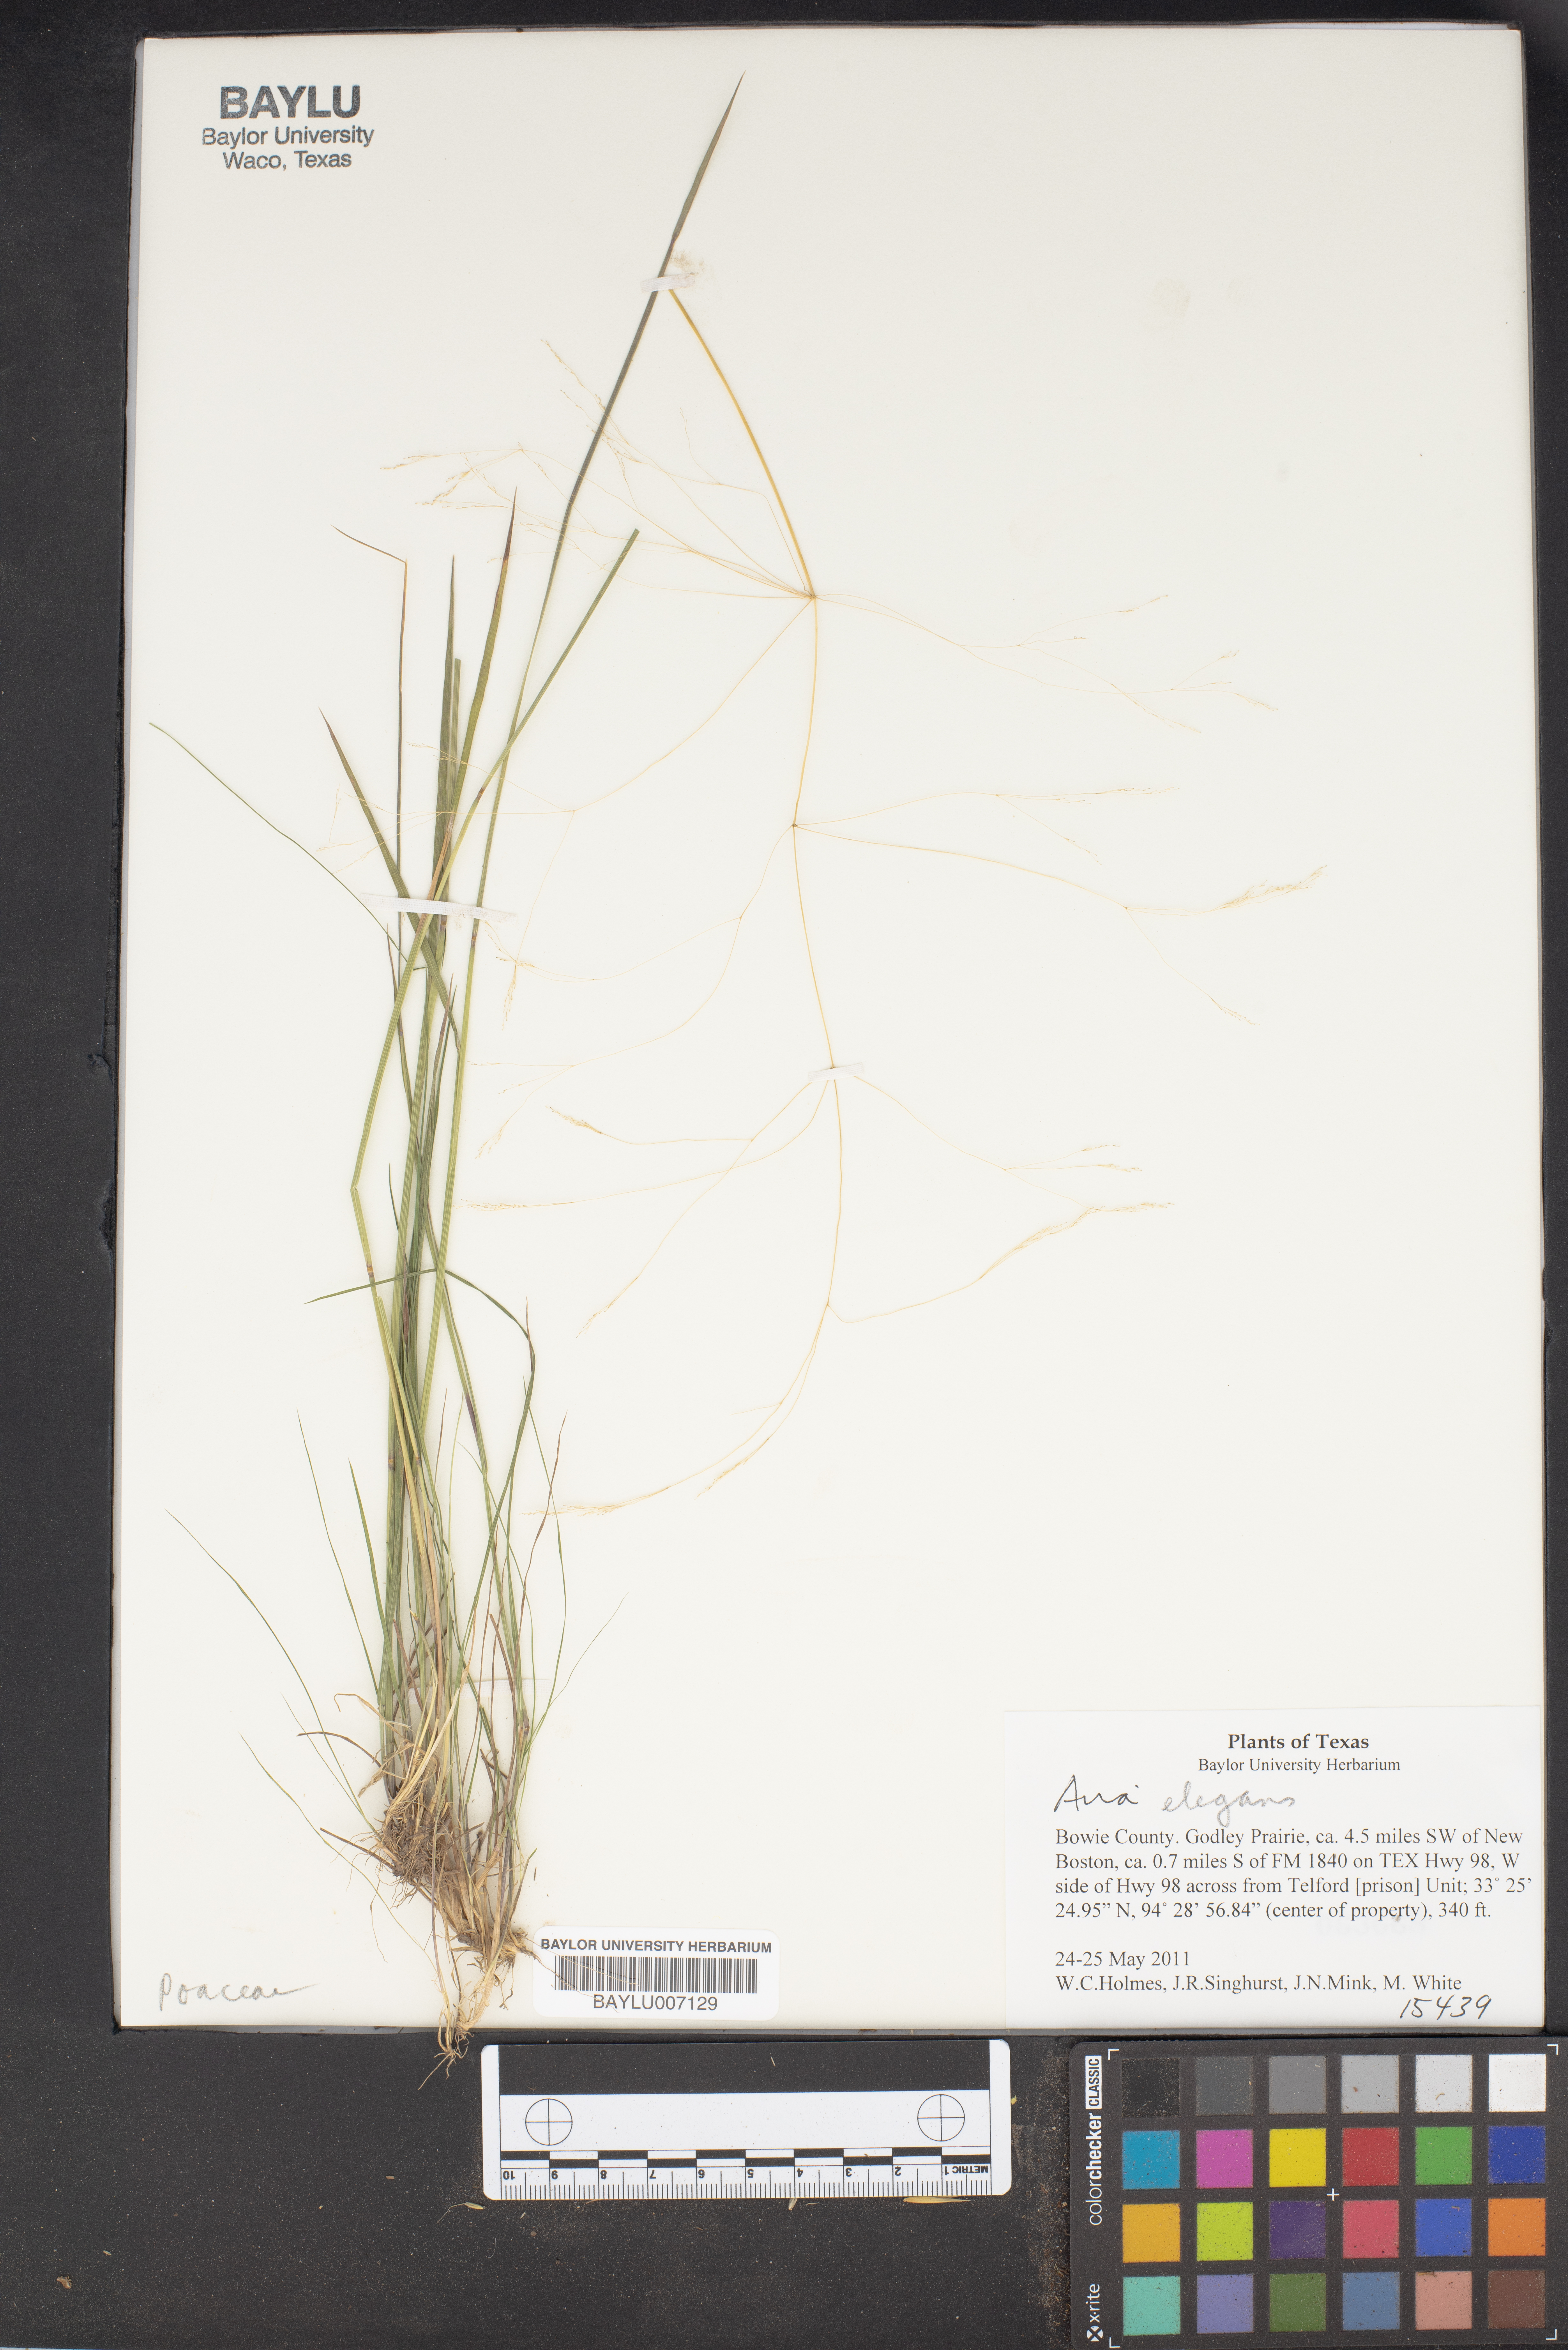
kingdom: Plantae
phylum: Tracheophyta
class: Magnoliopsida
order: Fabales
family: Fabaceae
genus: Anarthrophyllum
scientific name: Anarthrophyllum elegans
